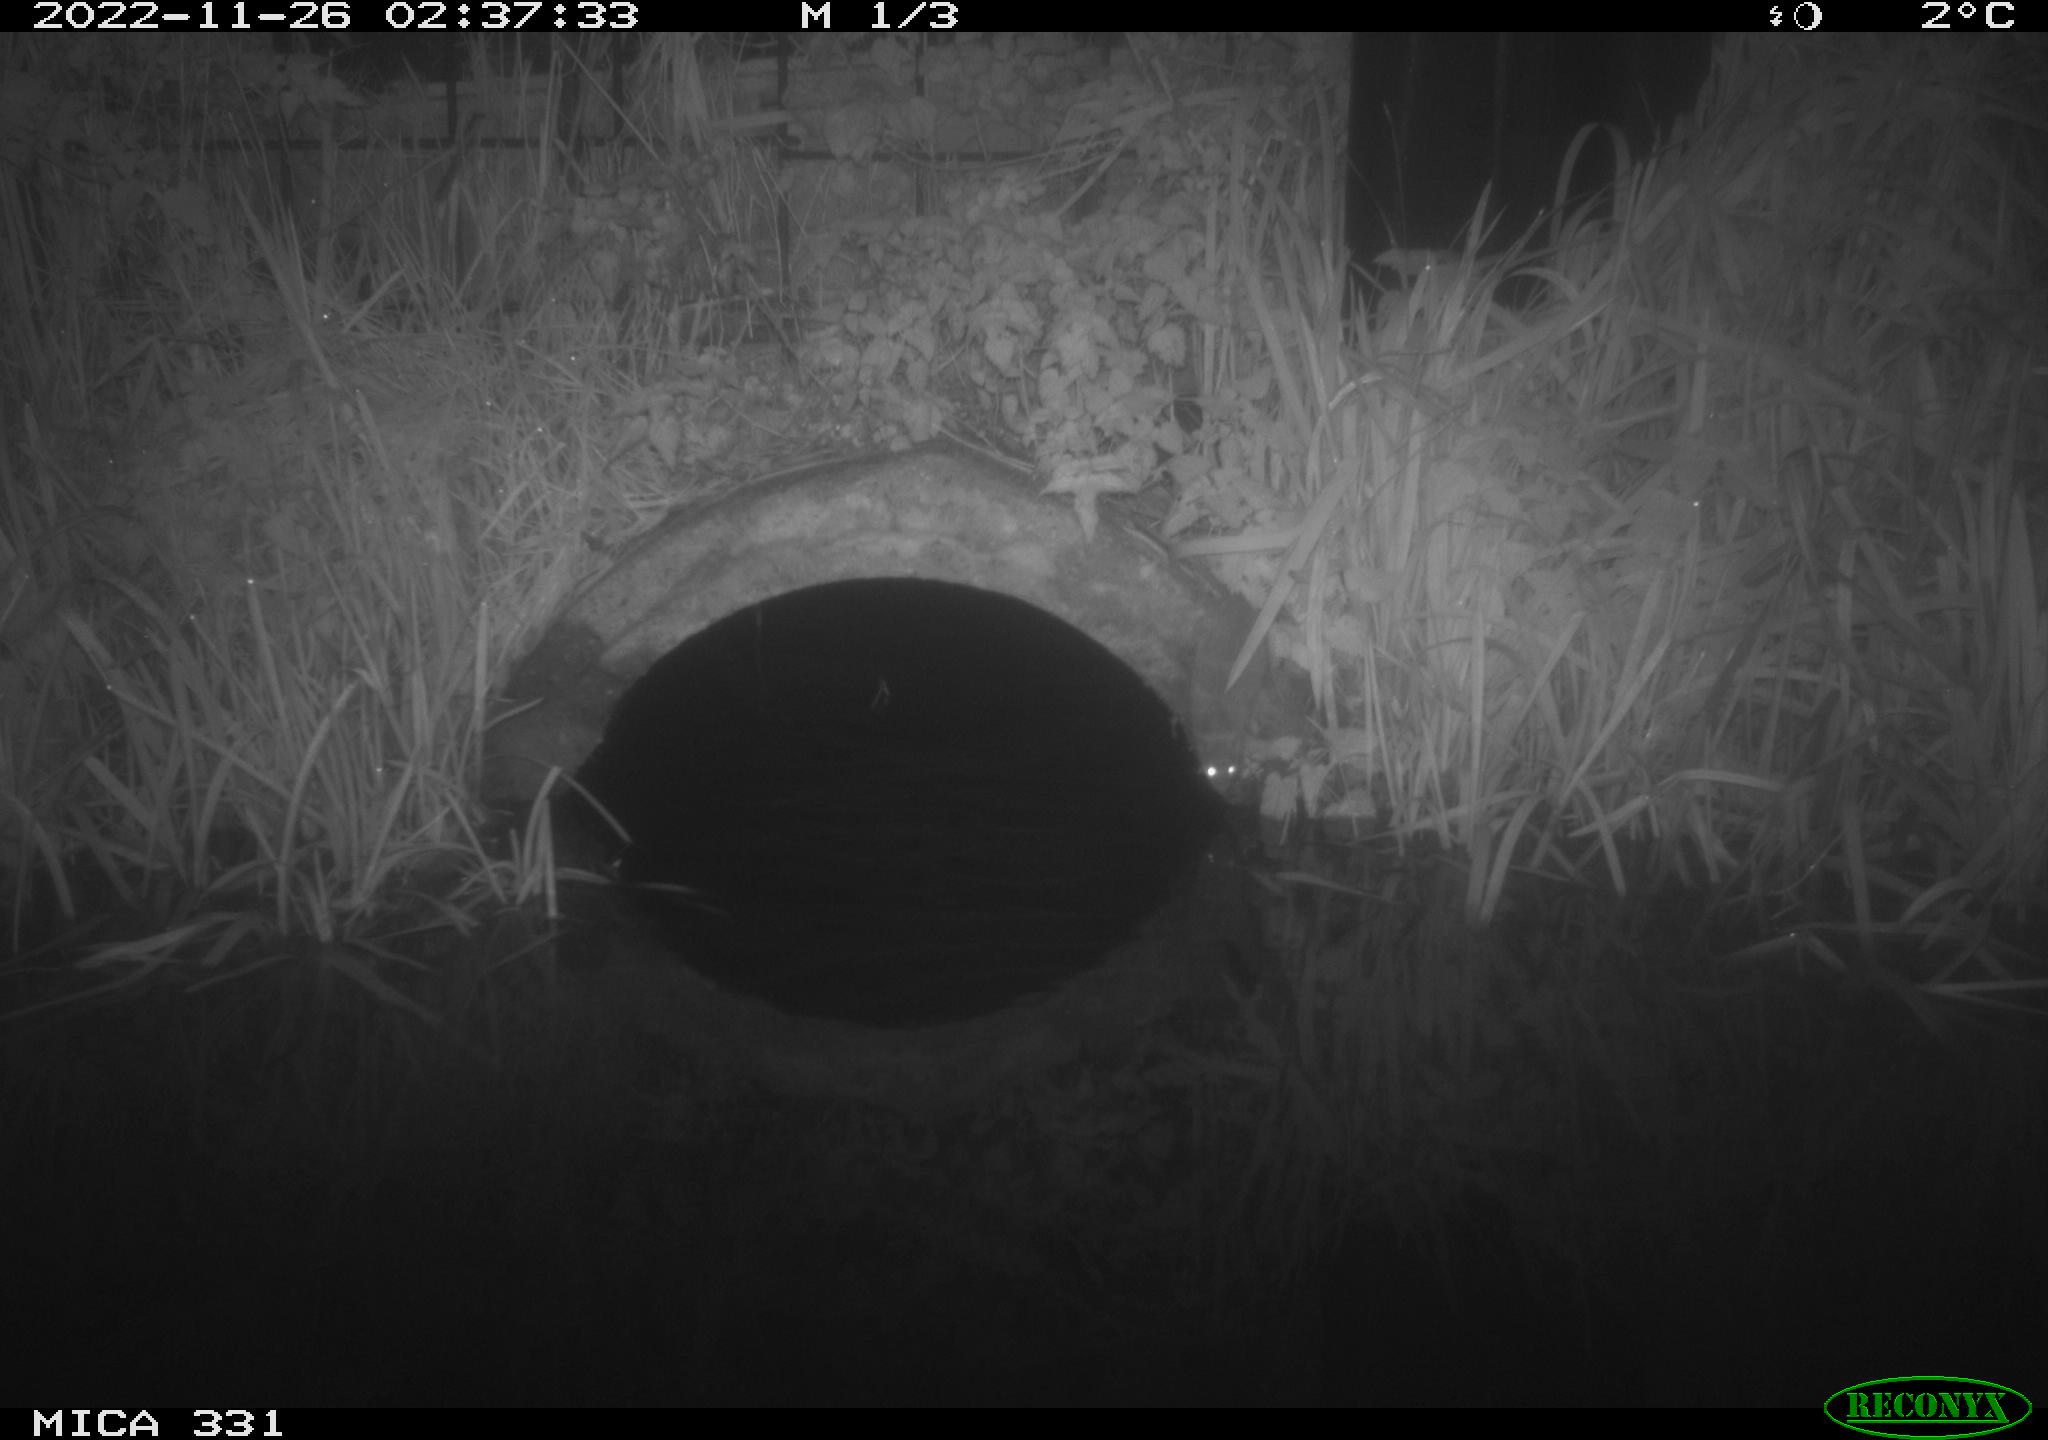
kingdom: Animalia
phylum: Chordata
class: Mammalia
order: Rodentia
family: Muridae
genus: Rattus
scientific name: Rattus norvegicus
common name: Brown rat
